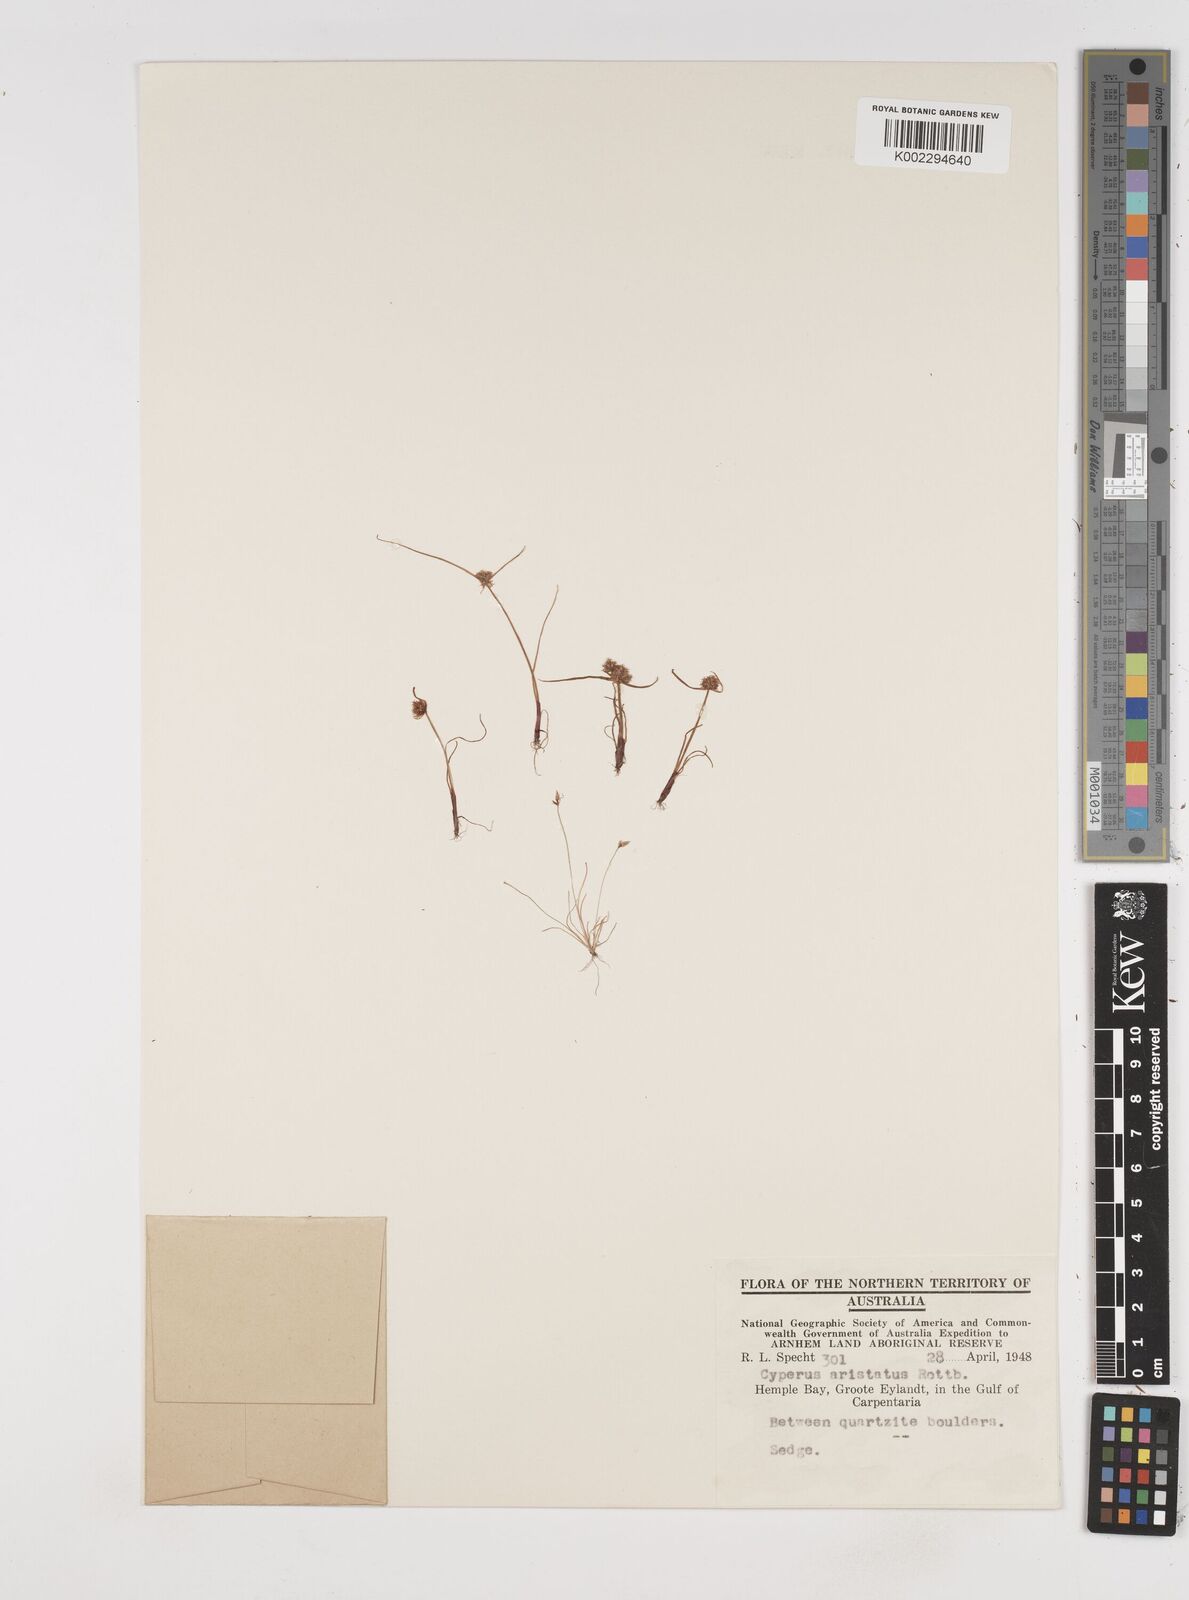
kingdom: Plantae
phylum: Tracheophyta
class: Liliopsida
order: Poales
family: Cyperaceae
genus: Cyperus
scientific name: Cyperus squarrosus
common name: Awned cyperus
